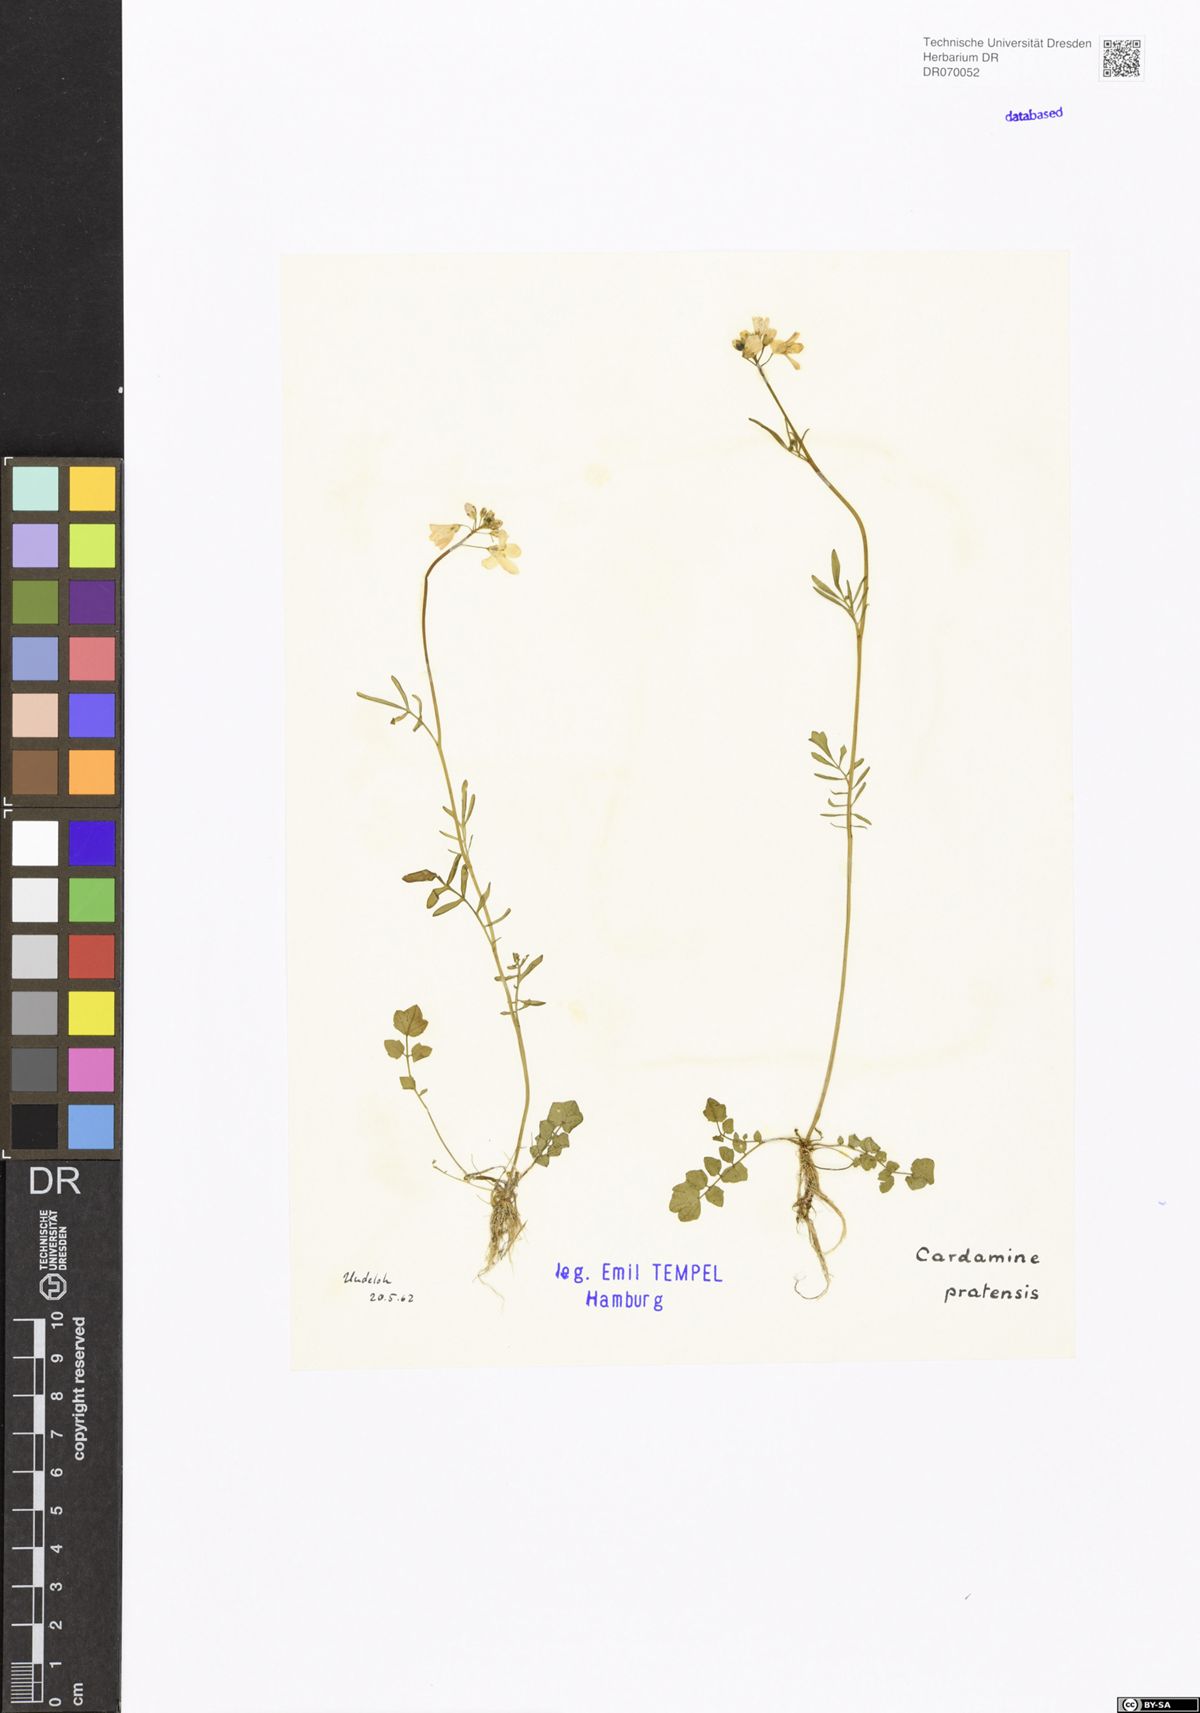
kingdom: Plantae
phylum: Tracheophyta
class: Magnoliopsida
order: Brassicales
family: Brassicaceae
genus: Cardamine
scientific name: Cardamine pratensis
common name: Cuckoo flower
